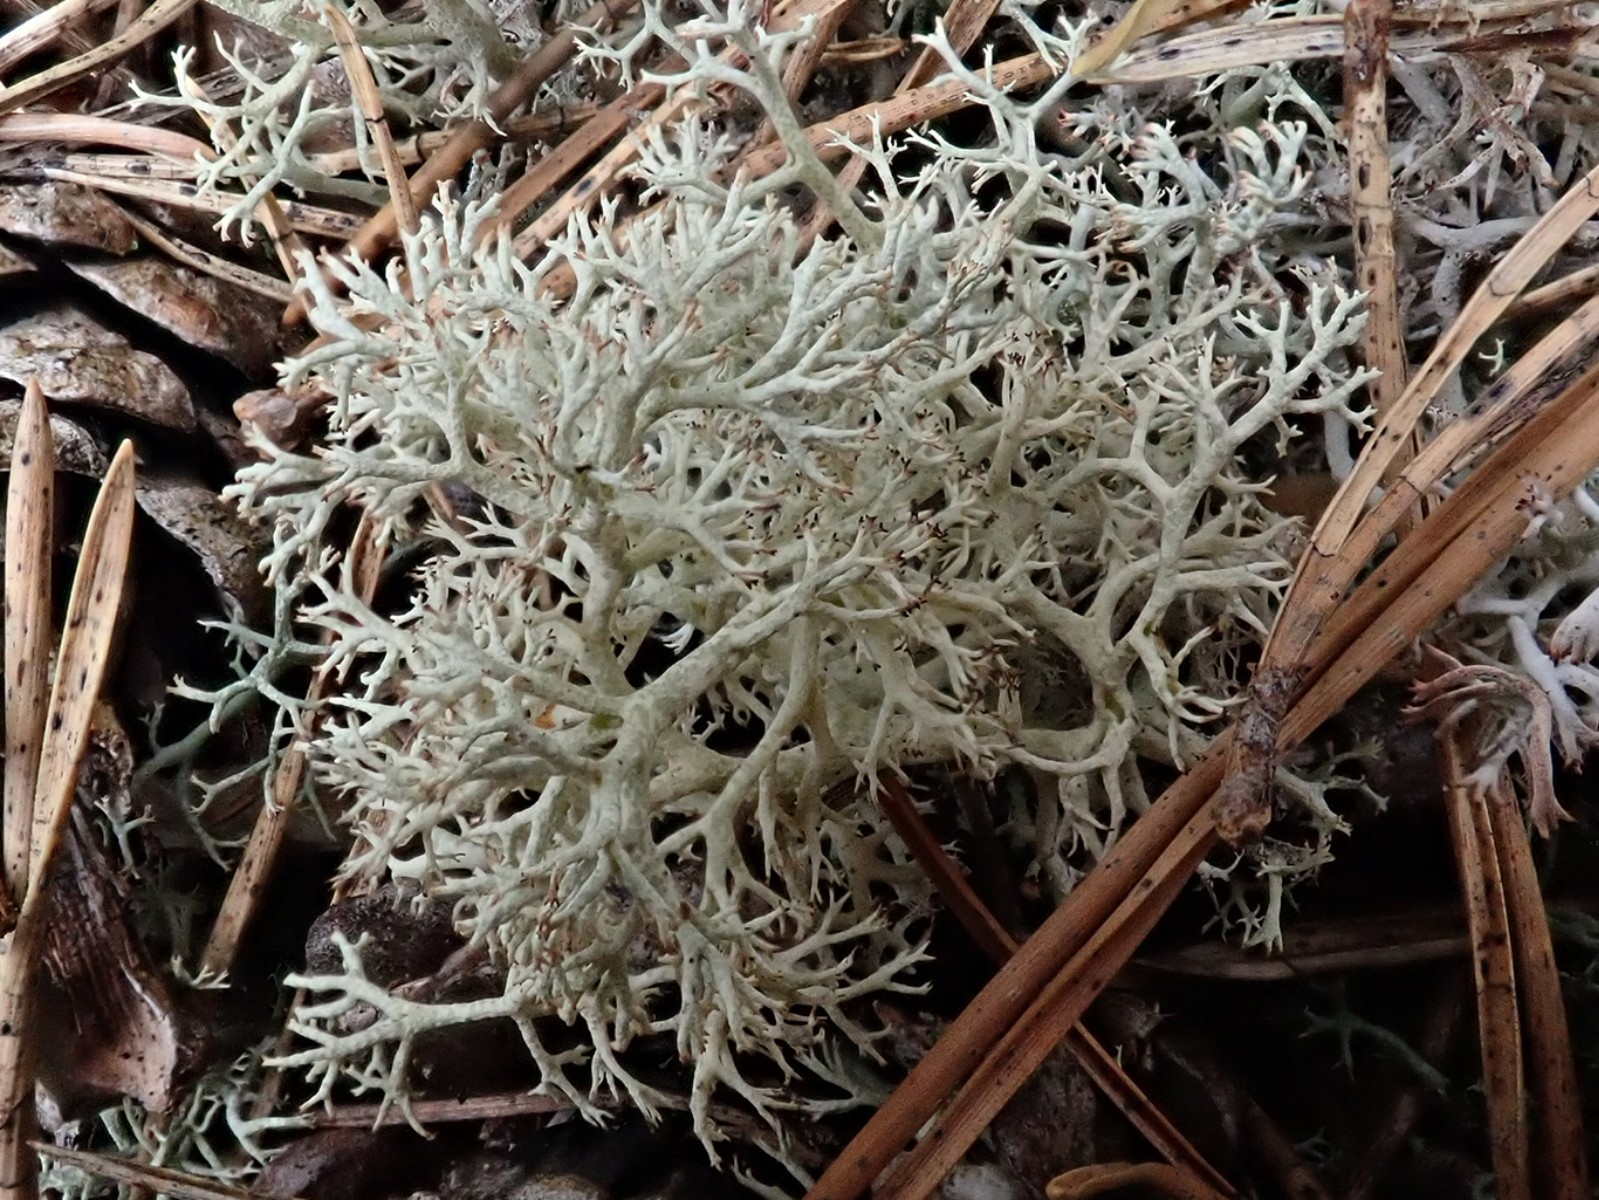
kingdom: Fungi
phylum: Ascomycota
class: Lecanoromycetes
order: Lecanorales
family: Cladoniaceae
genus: Cladonia
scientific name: Cladonia
